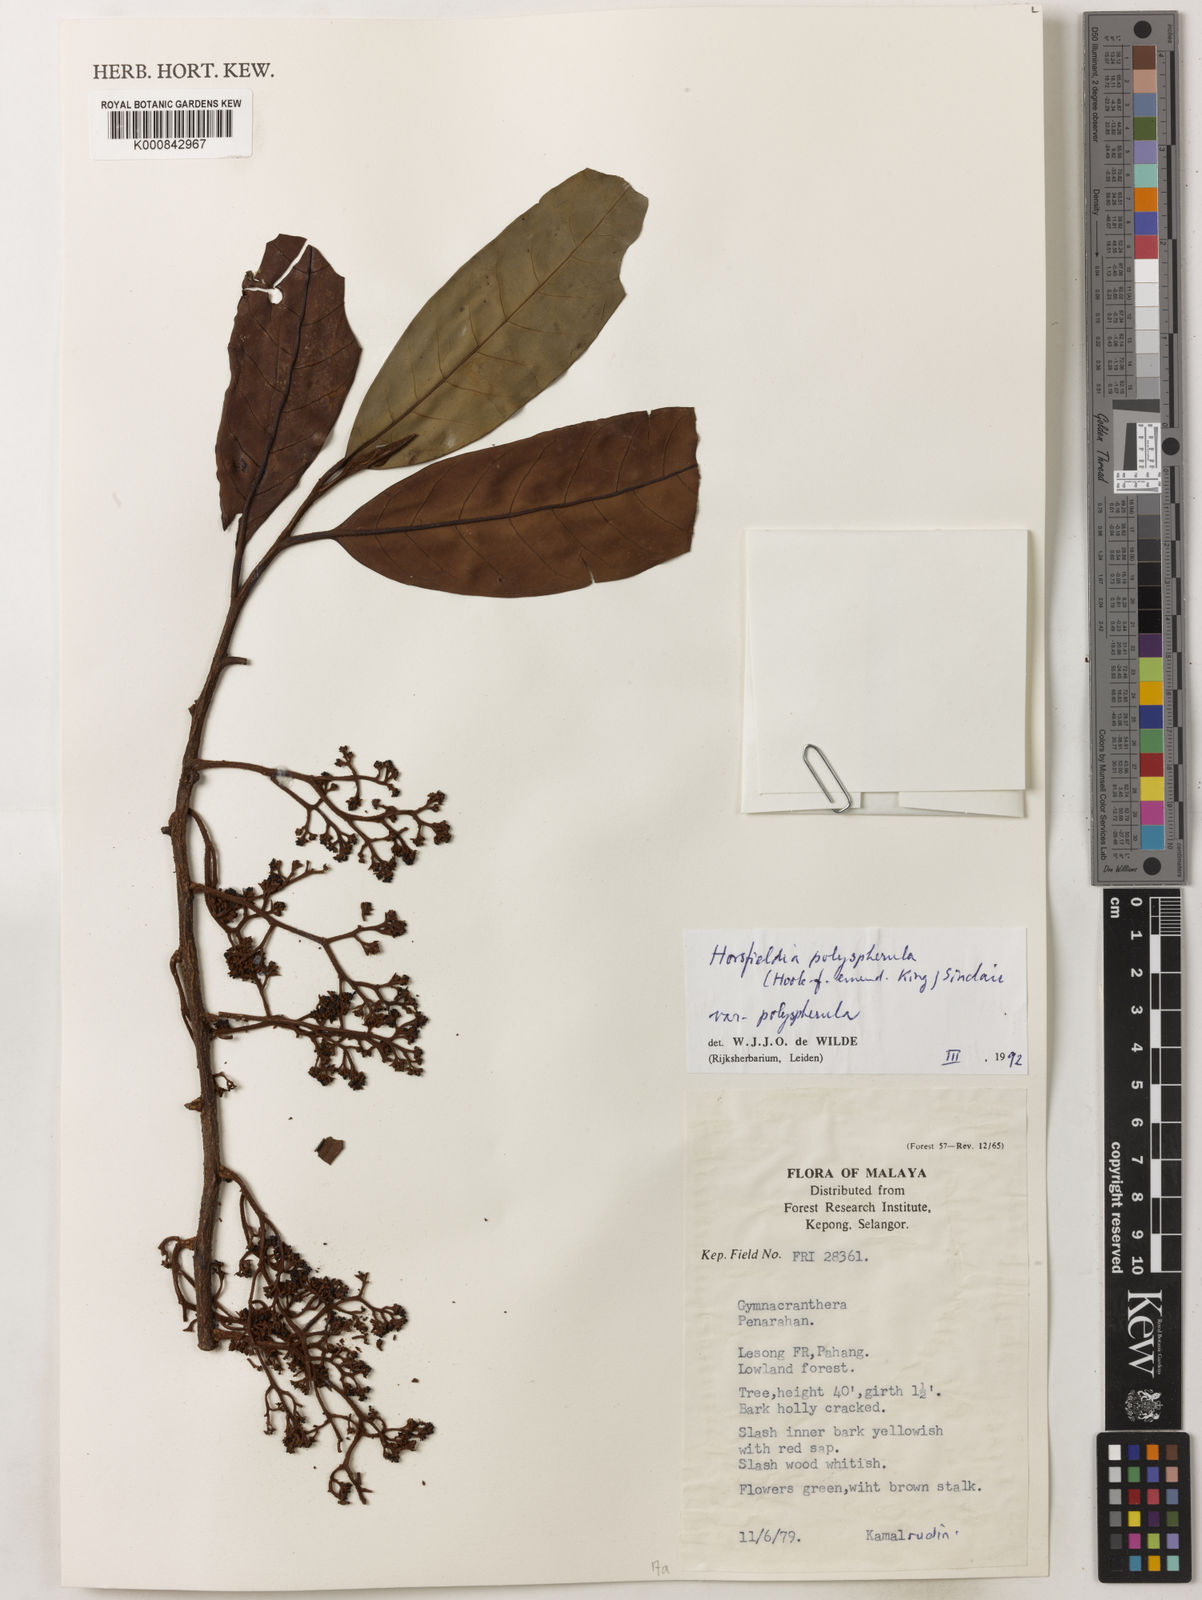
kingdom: Plantae
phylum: Tracheophyta
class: Magnoliopsida
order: Magnoliales
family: Myristicaceae
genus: Horsfieldia
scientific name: Horsfieldia
